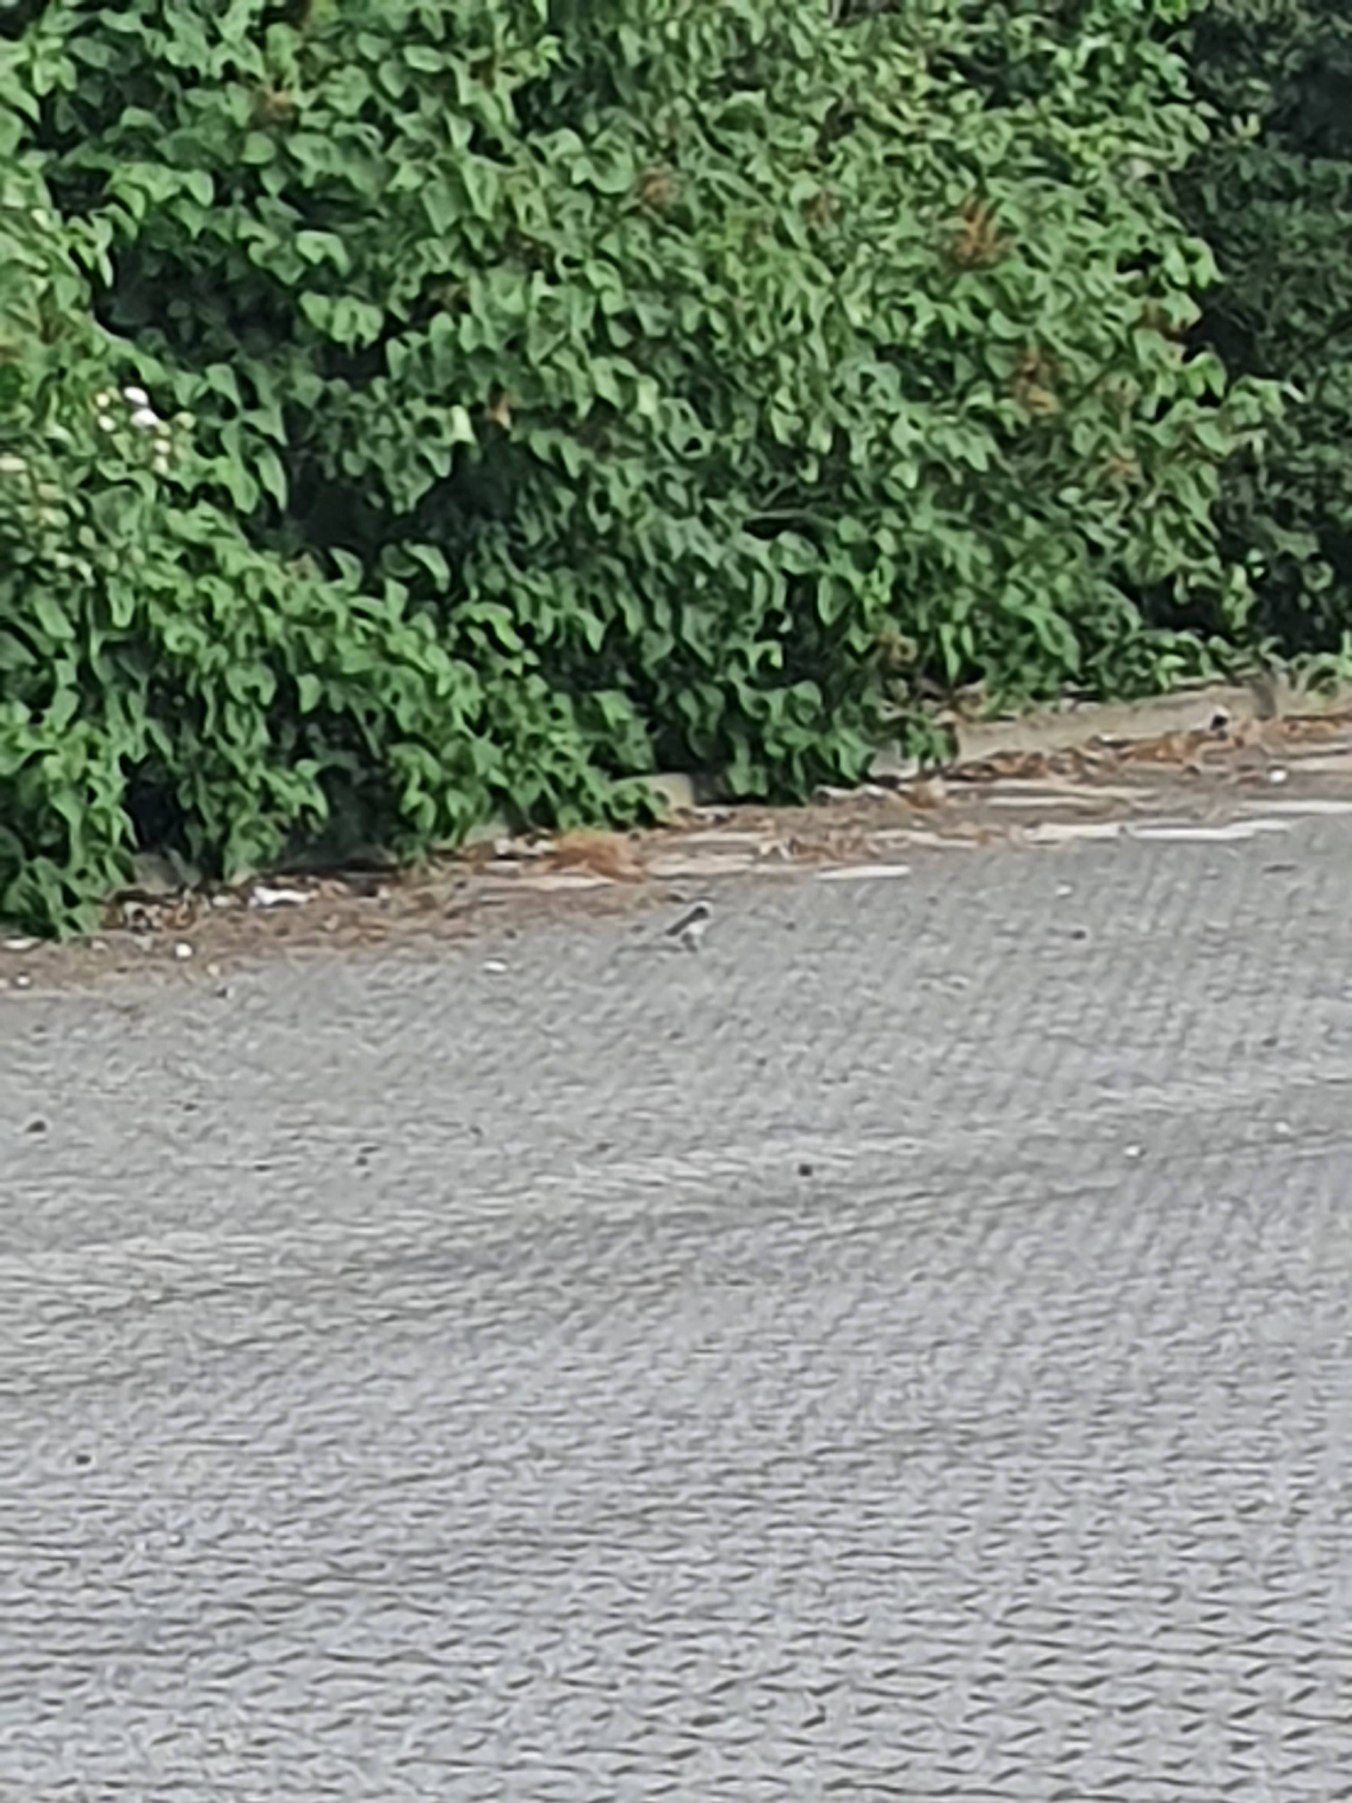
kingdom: Animalia
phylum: Chordata
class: Aves
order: Passeriformes
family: Motacillidae
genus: Motacilla
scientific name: Motacilla alba
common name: Hvid vipstjert
